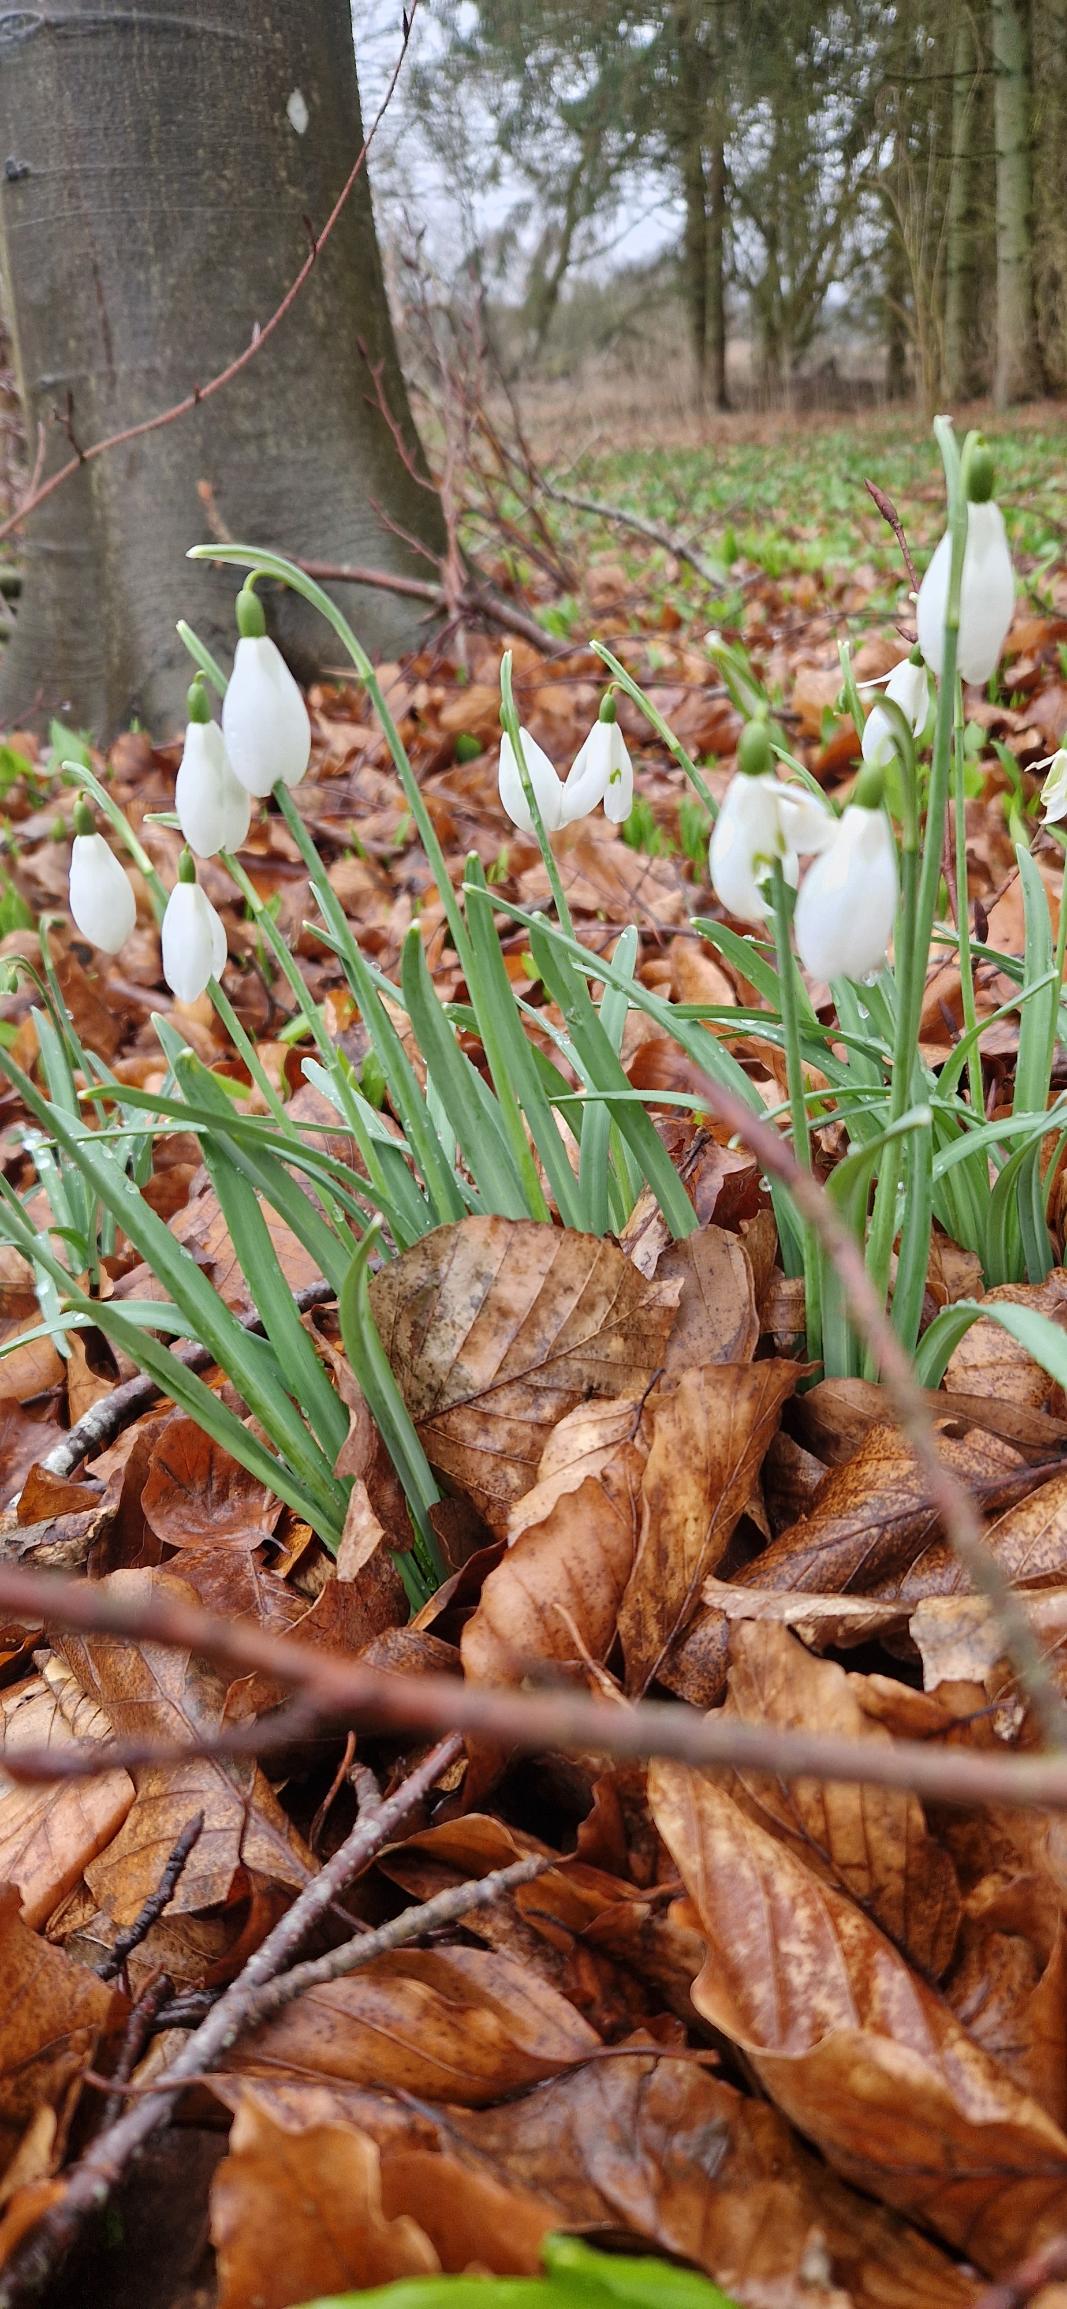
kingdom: Plantae
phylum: Tracheophyta
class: Liliopsida
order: Asparagales
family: Amaryllidaceae
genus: Galanthus
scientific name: Galanthus nivalis
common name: Vintergæk
